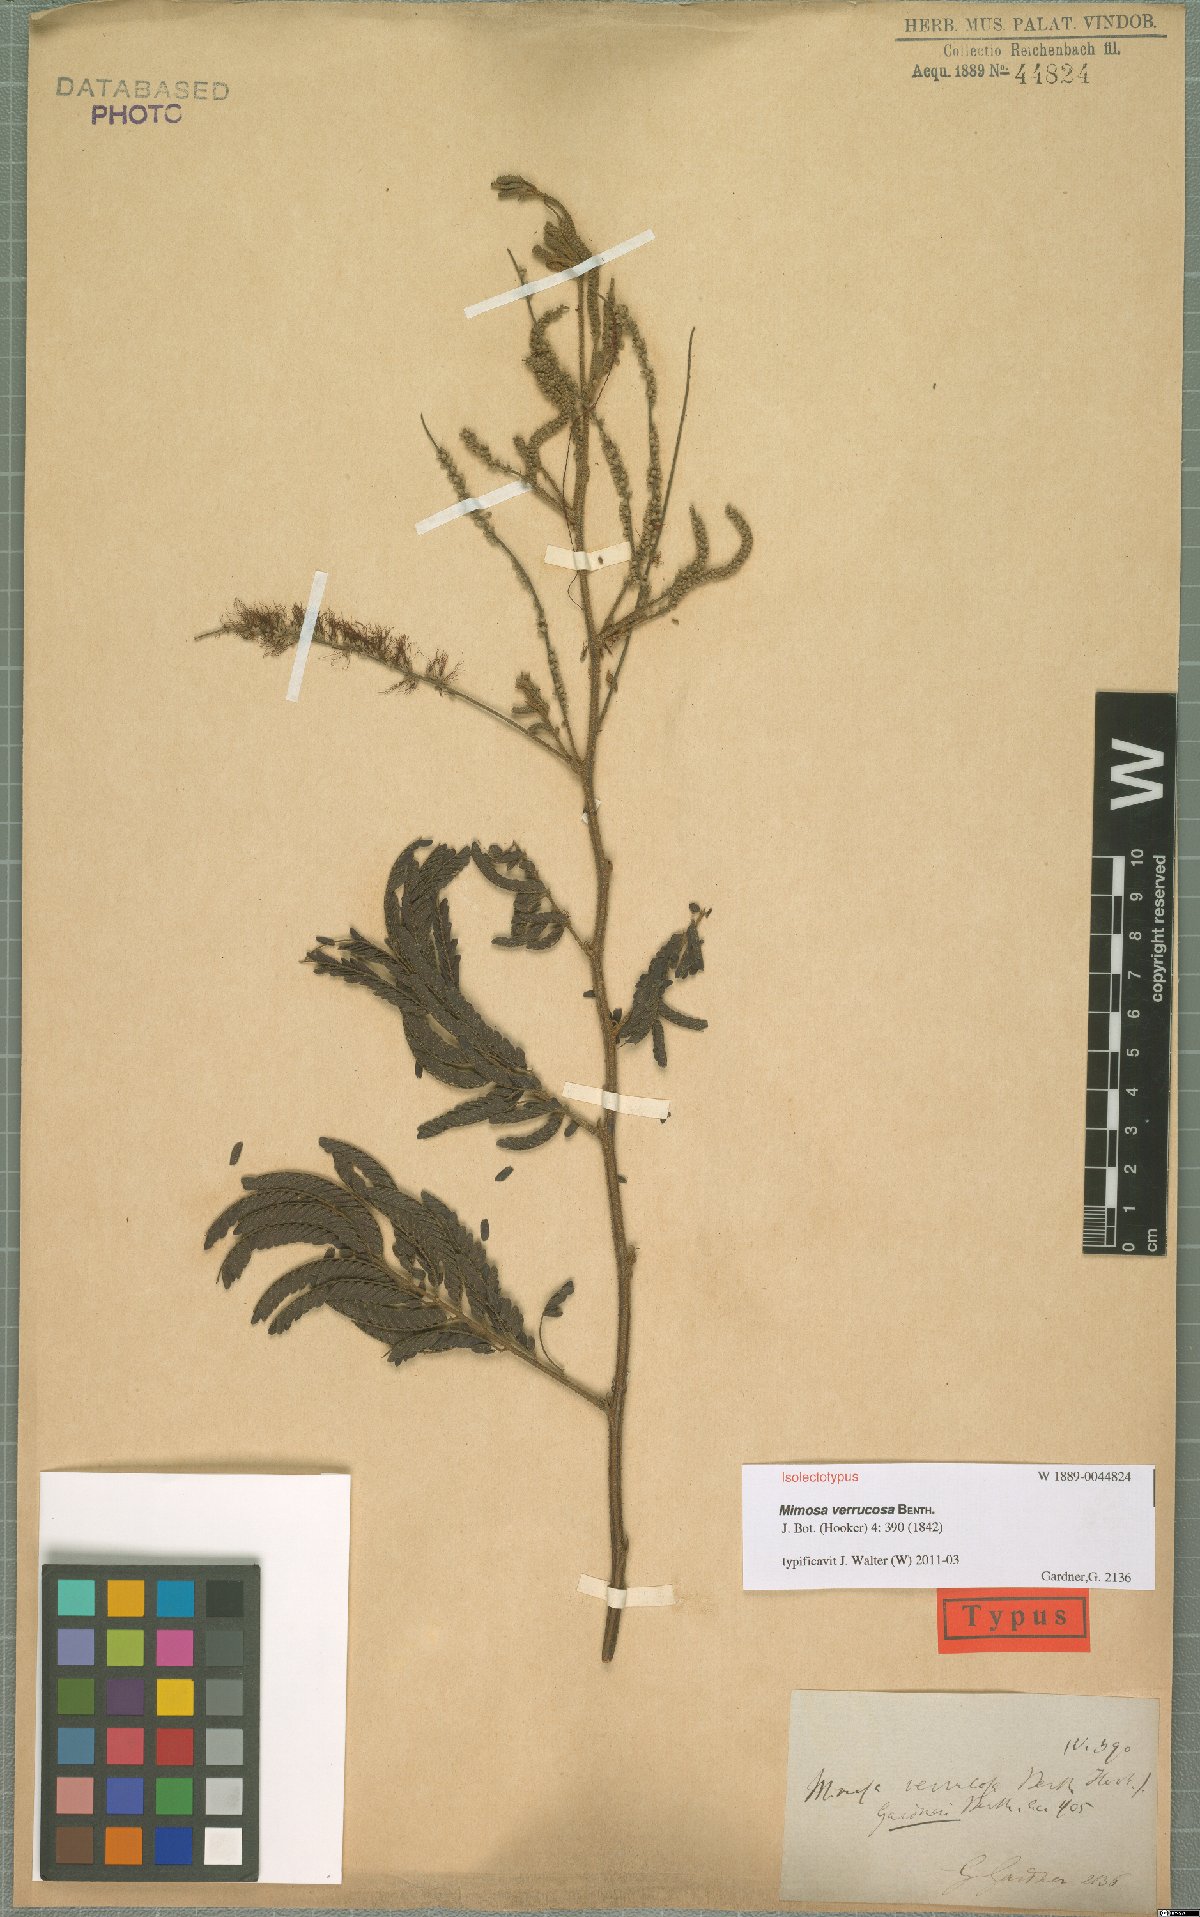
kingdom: Plantae
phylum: Tracheophyta
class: Magnoliopsida
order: Fabales
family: Fabaceae
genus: Mimosa
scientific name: Mimosa verrucosa
